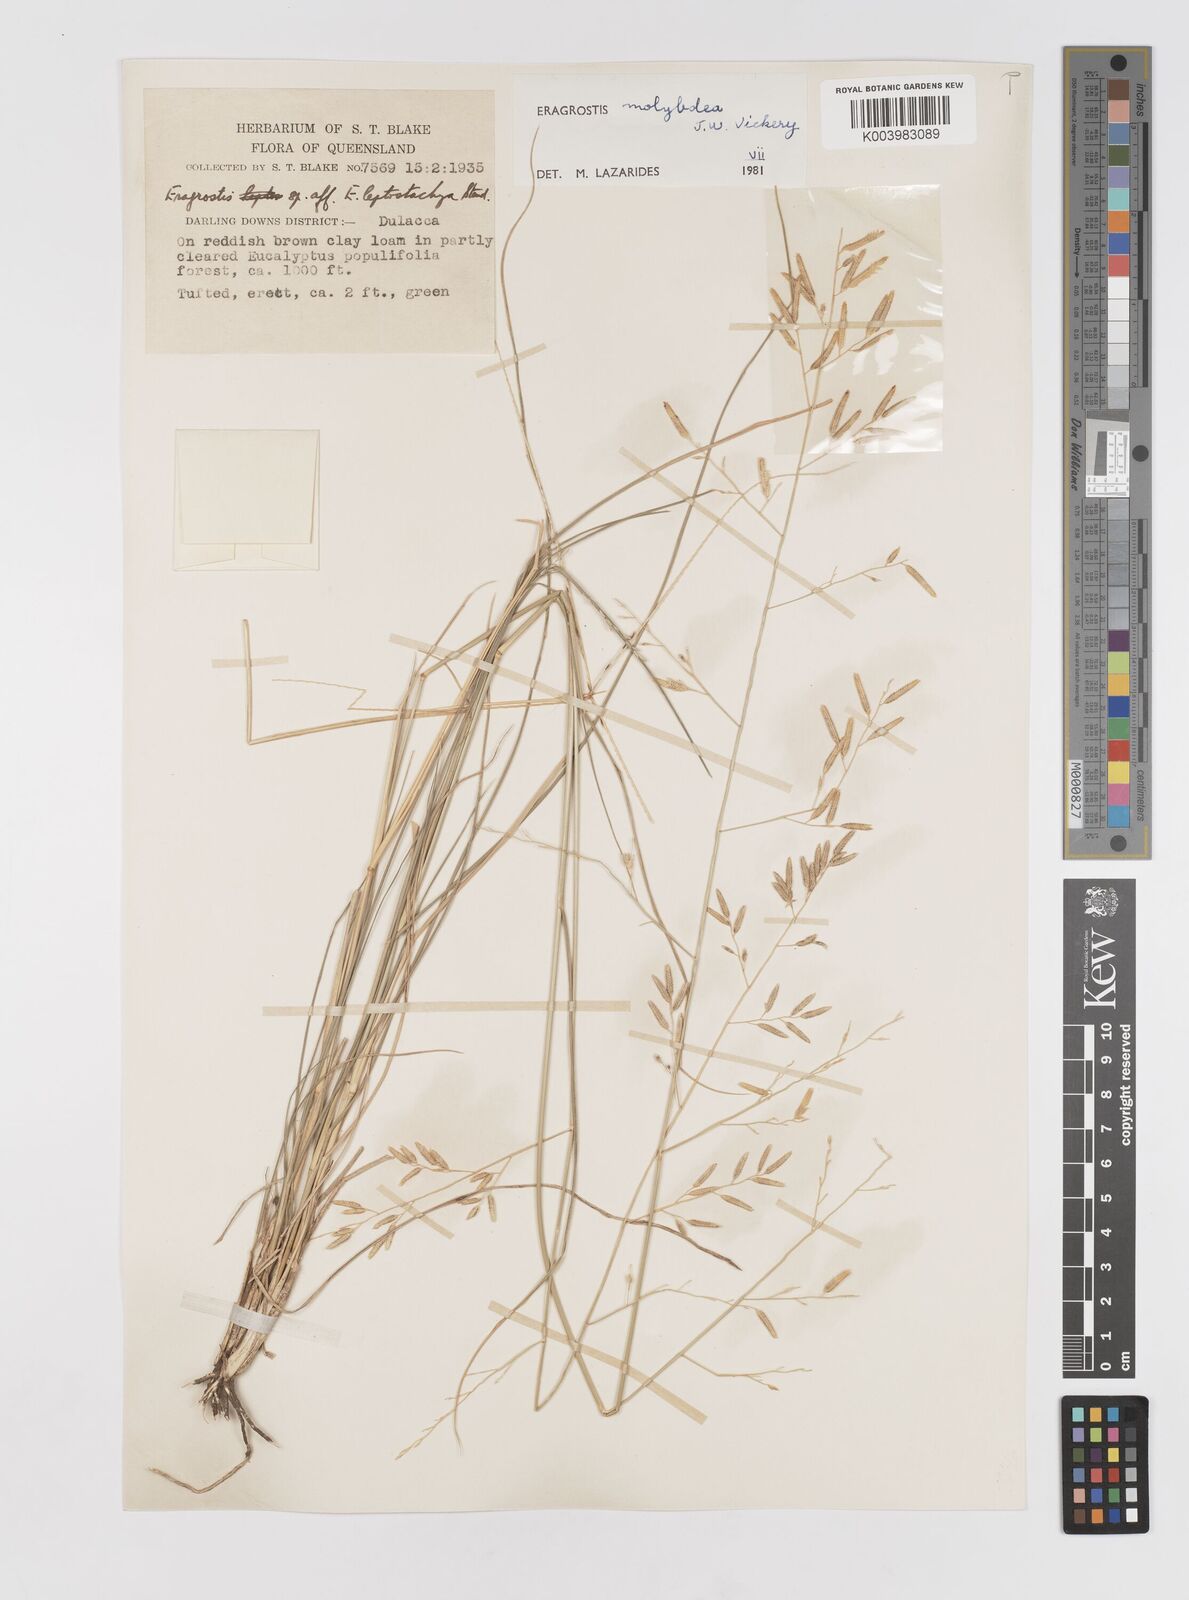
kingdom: Plantae
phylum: Tracheophyta
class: Liliopsida
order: Poales
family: Poaceae
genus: Eragrostis
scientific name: Eragrostis leptostachya
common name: Australian lovegrass
